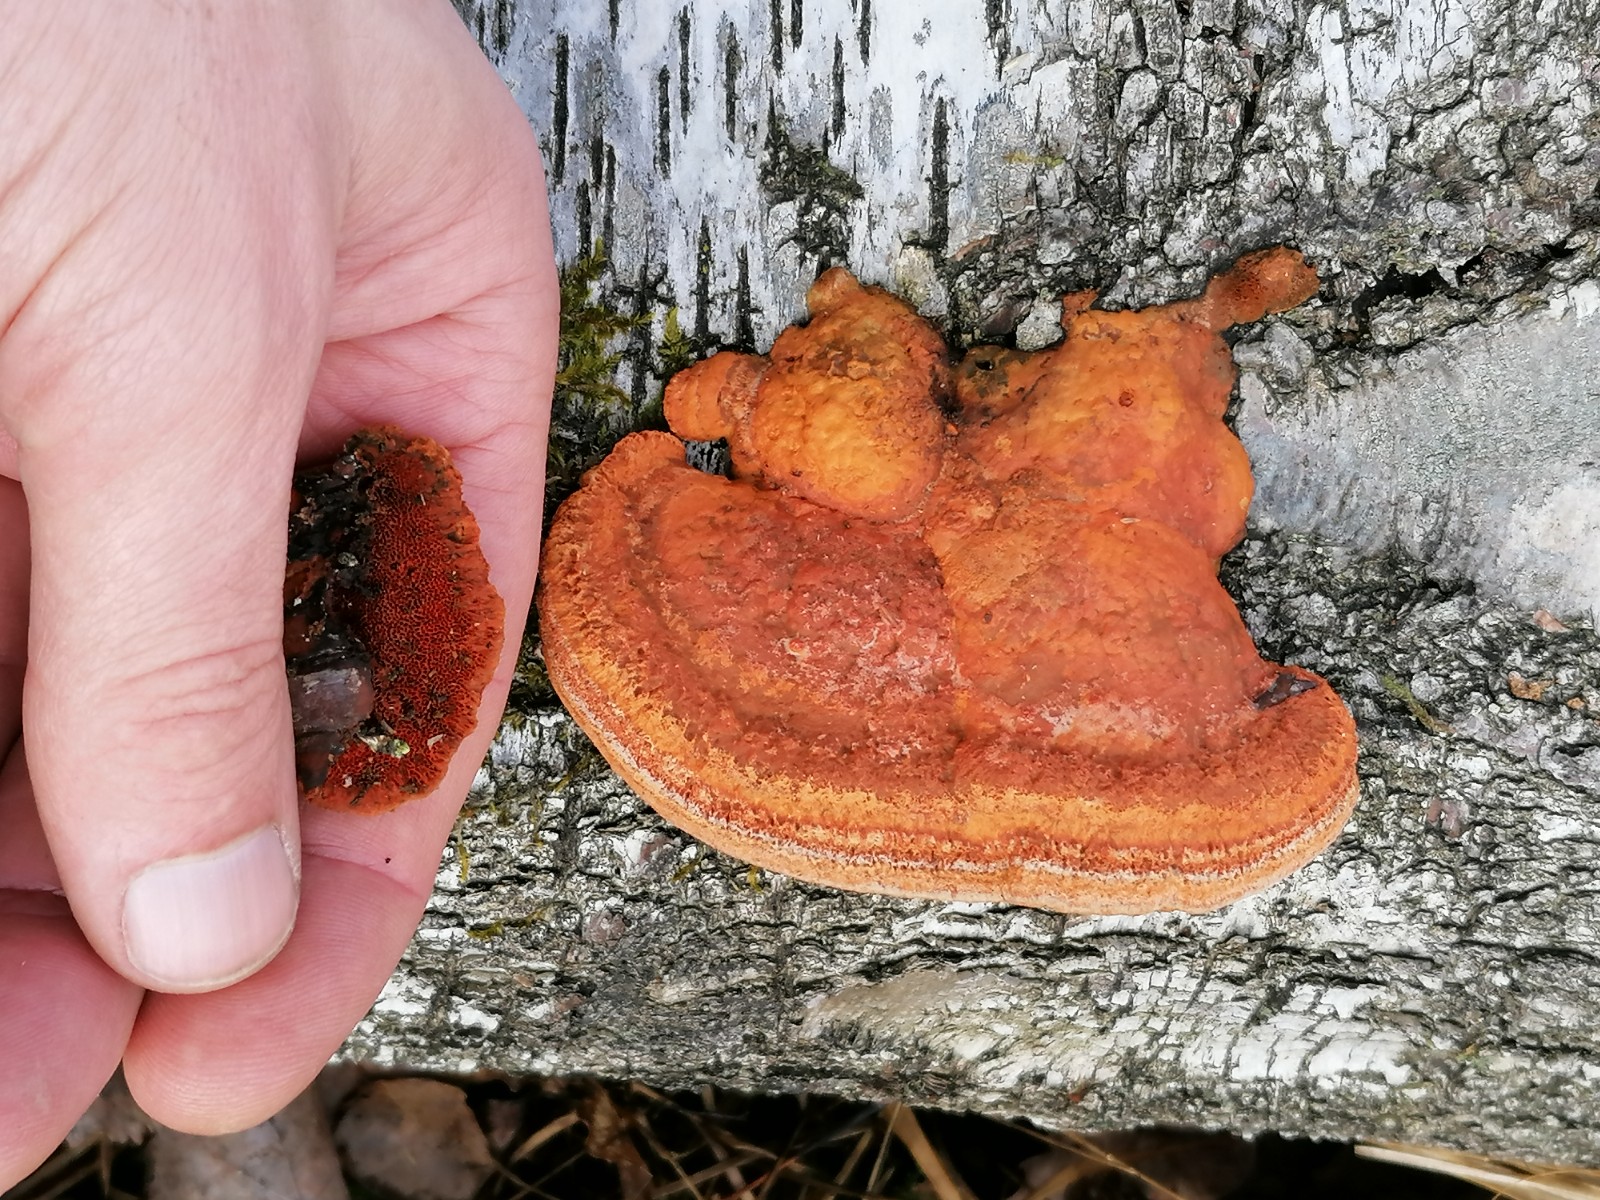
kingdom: Fungi
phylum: Basidiomycota
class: Agaricomycetes
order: Polyporales
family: Polyporaceae
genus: Trametes
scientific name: Trametes cinnabarina
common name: cinnoberporesvamp
